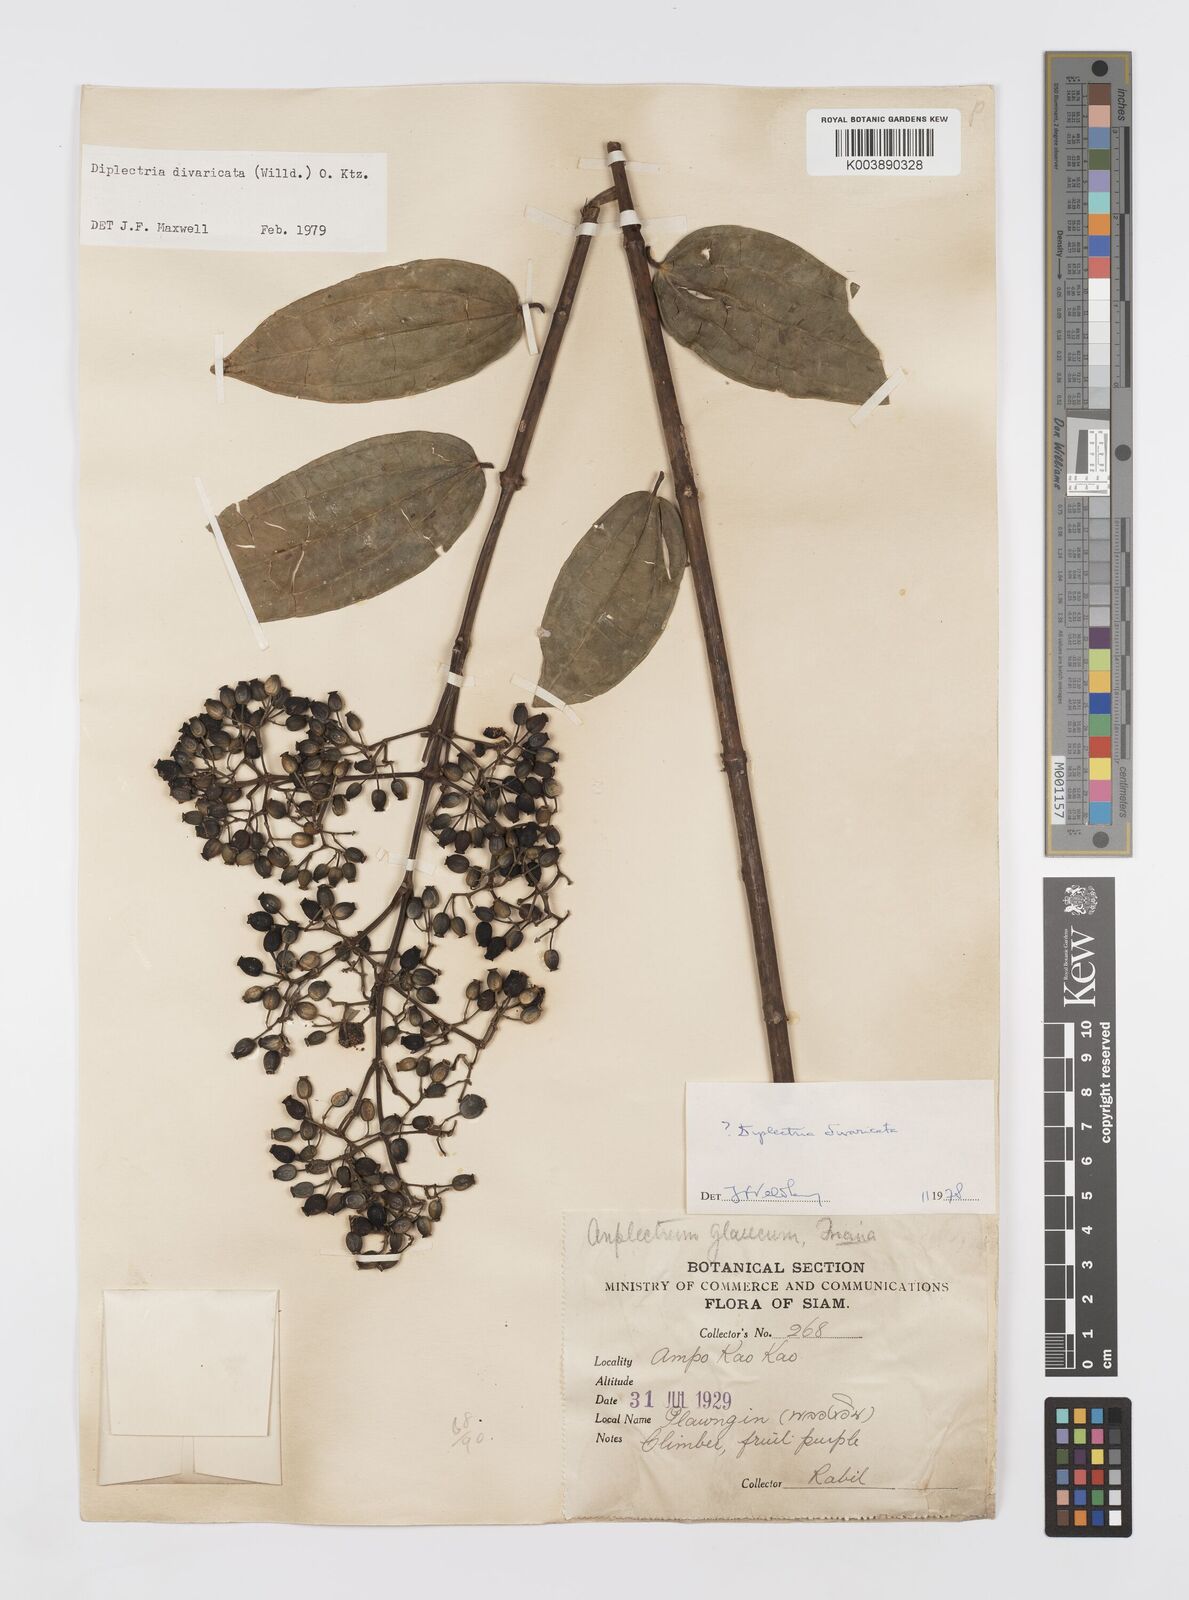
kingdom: Plantae
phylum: Tracheophyta
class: Magnoliopsida
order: Myrtales
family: Melastomataceae
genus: Diplectria
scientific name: Diplectria divaricata
